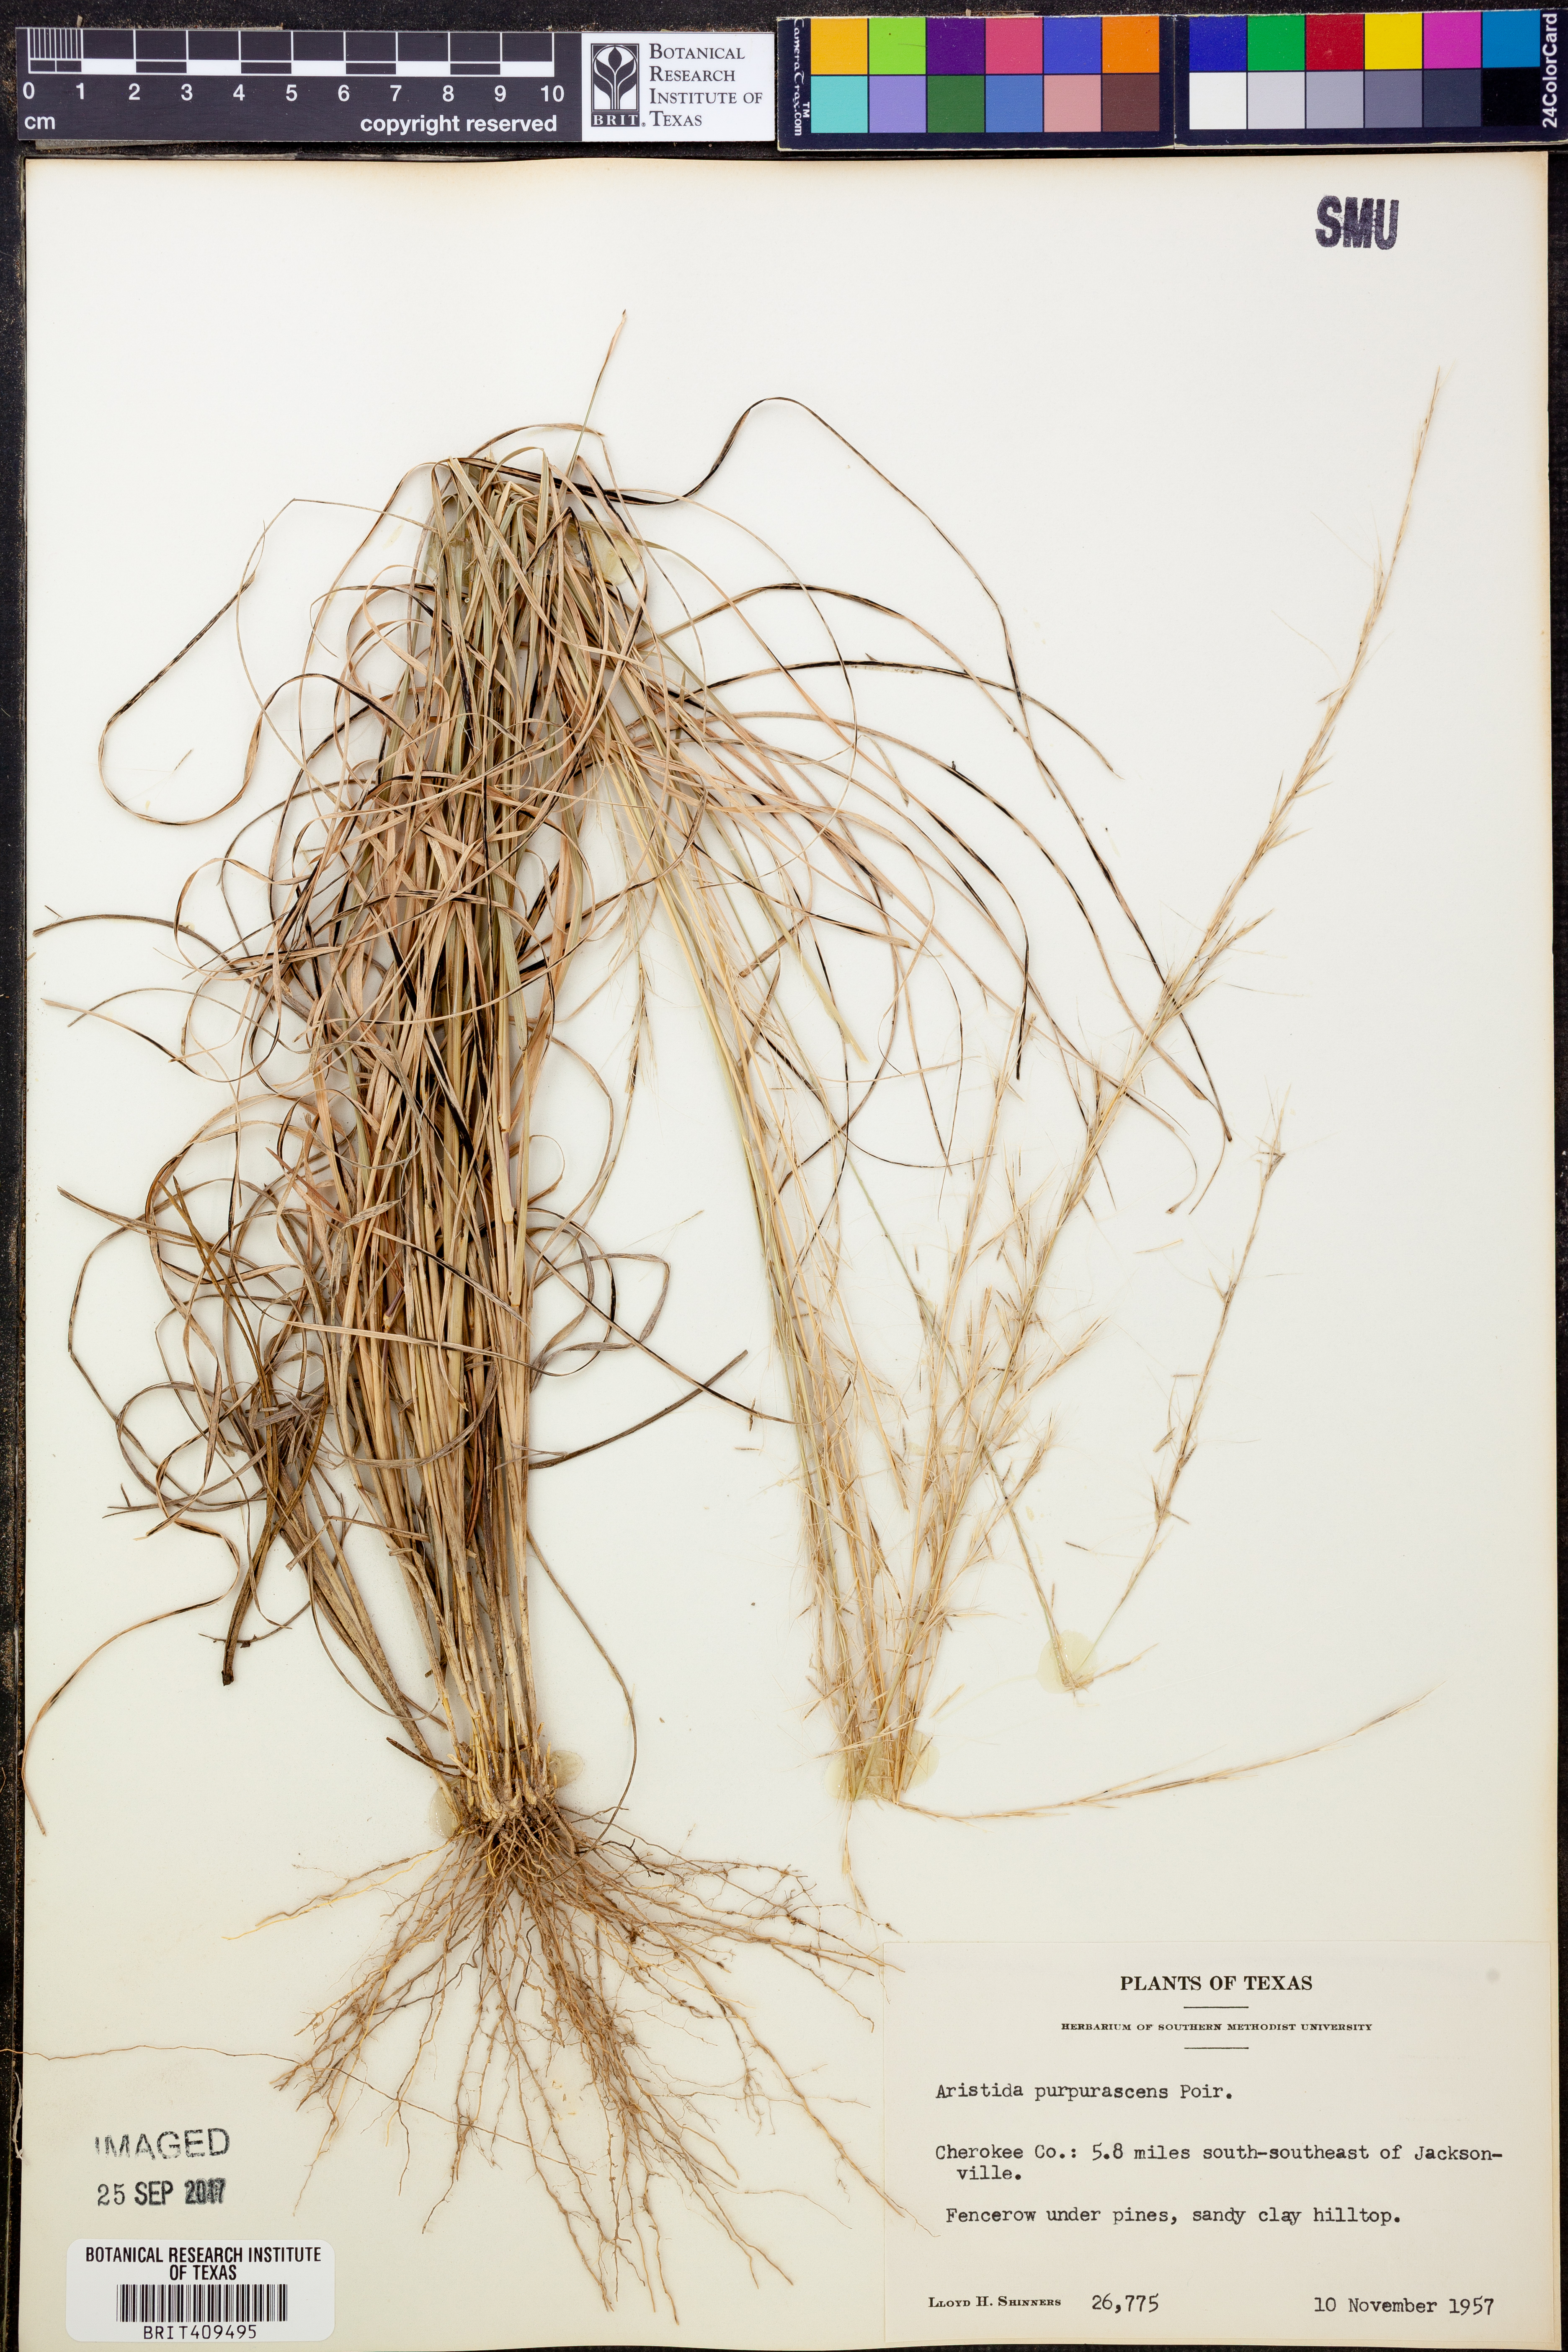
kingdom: Plantae
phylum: Tracheophyta
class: Liliopsida
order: Poales
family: Poaceae
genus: Aristida
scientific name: Aristida purpurascens
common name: Arrow-feather
